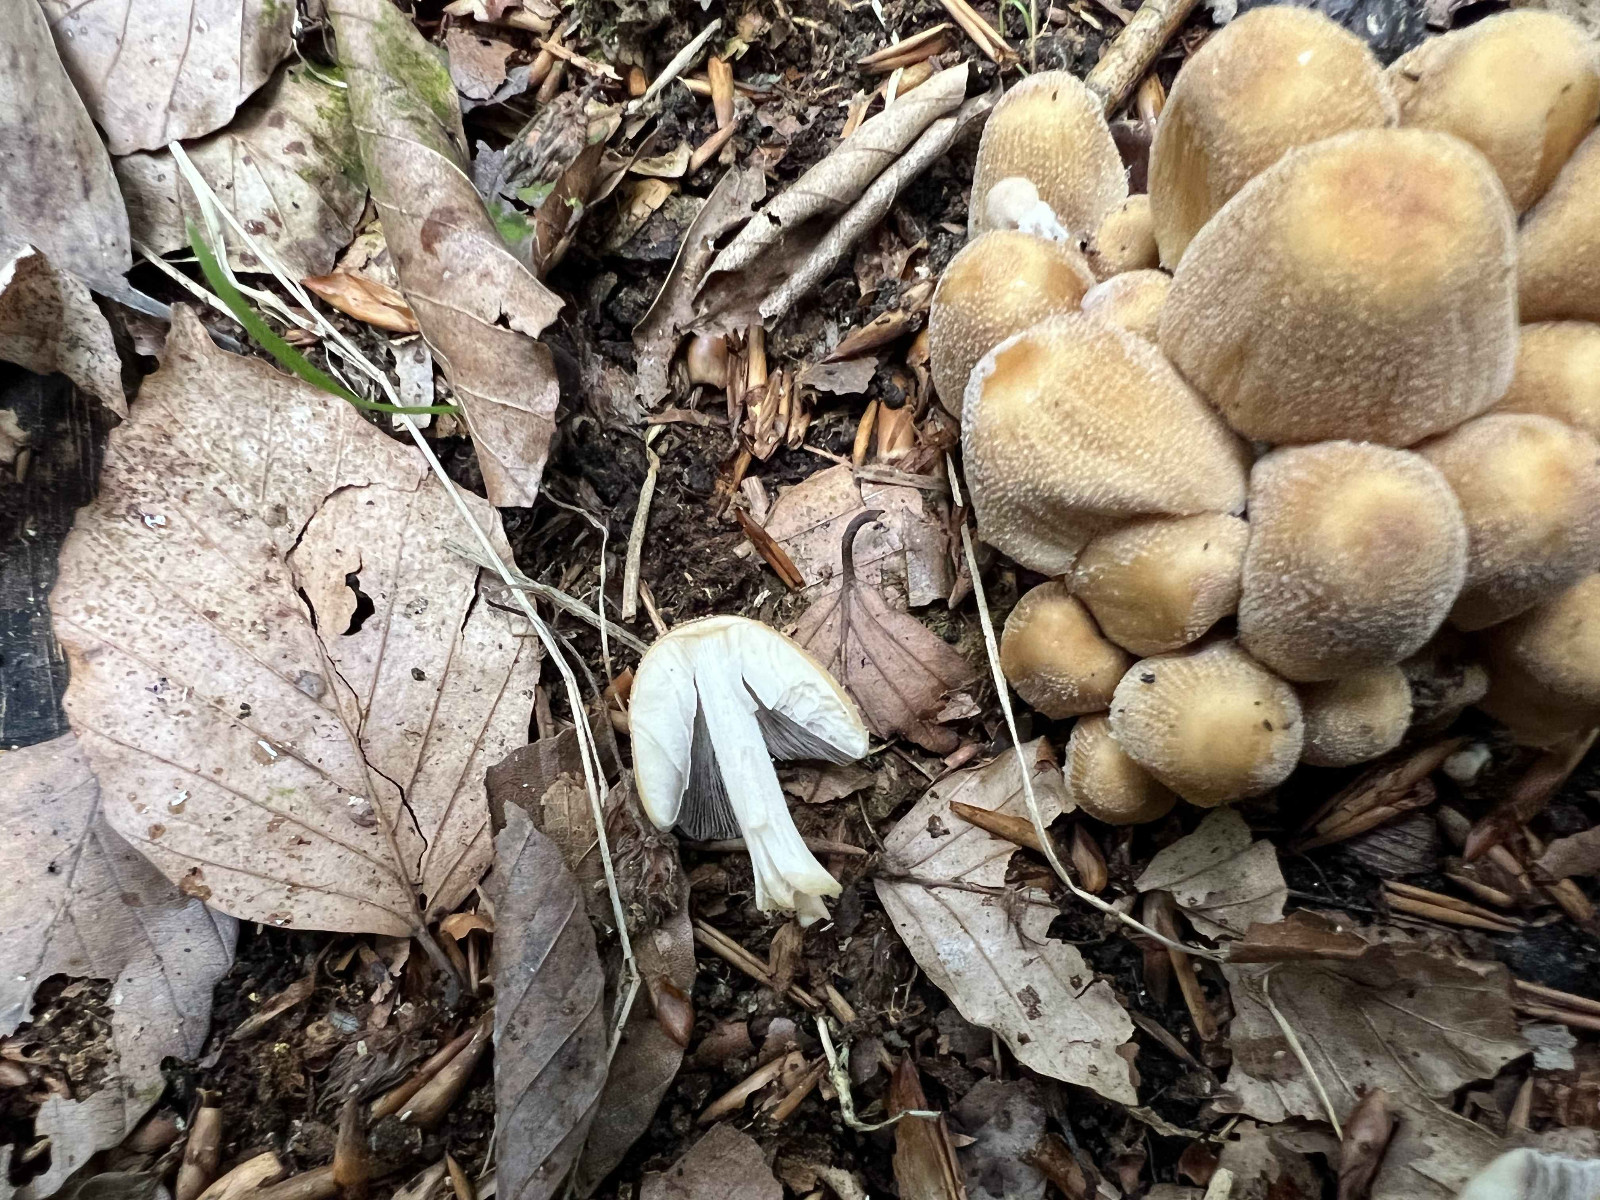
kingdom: Fungi
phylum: Basidiomycota
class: Agaricomycetes
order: Agaricales
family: Psathyrellaceae
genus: Coprinellus
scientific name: Coprinellus micaceus
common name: glimmer-blækhat
